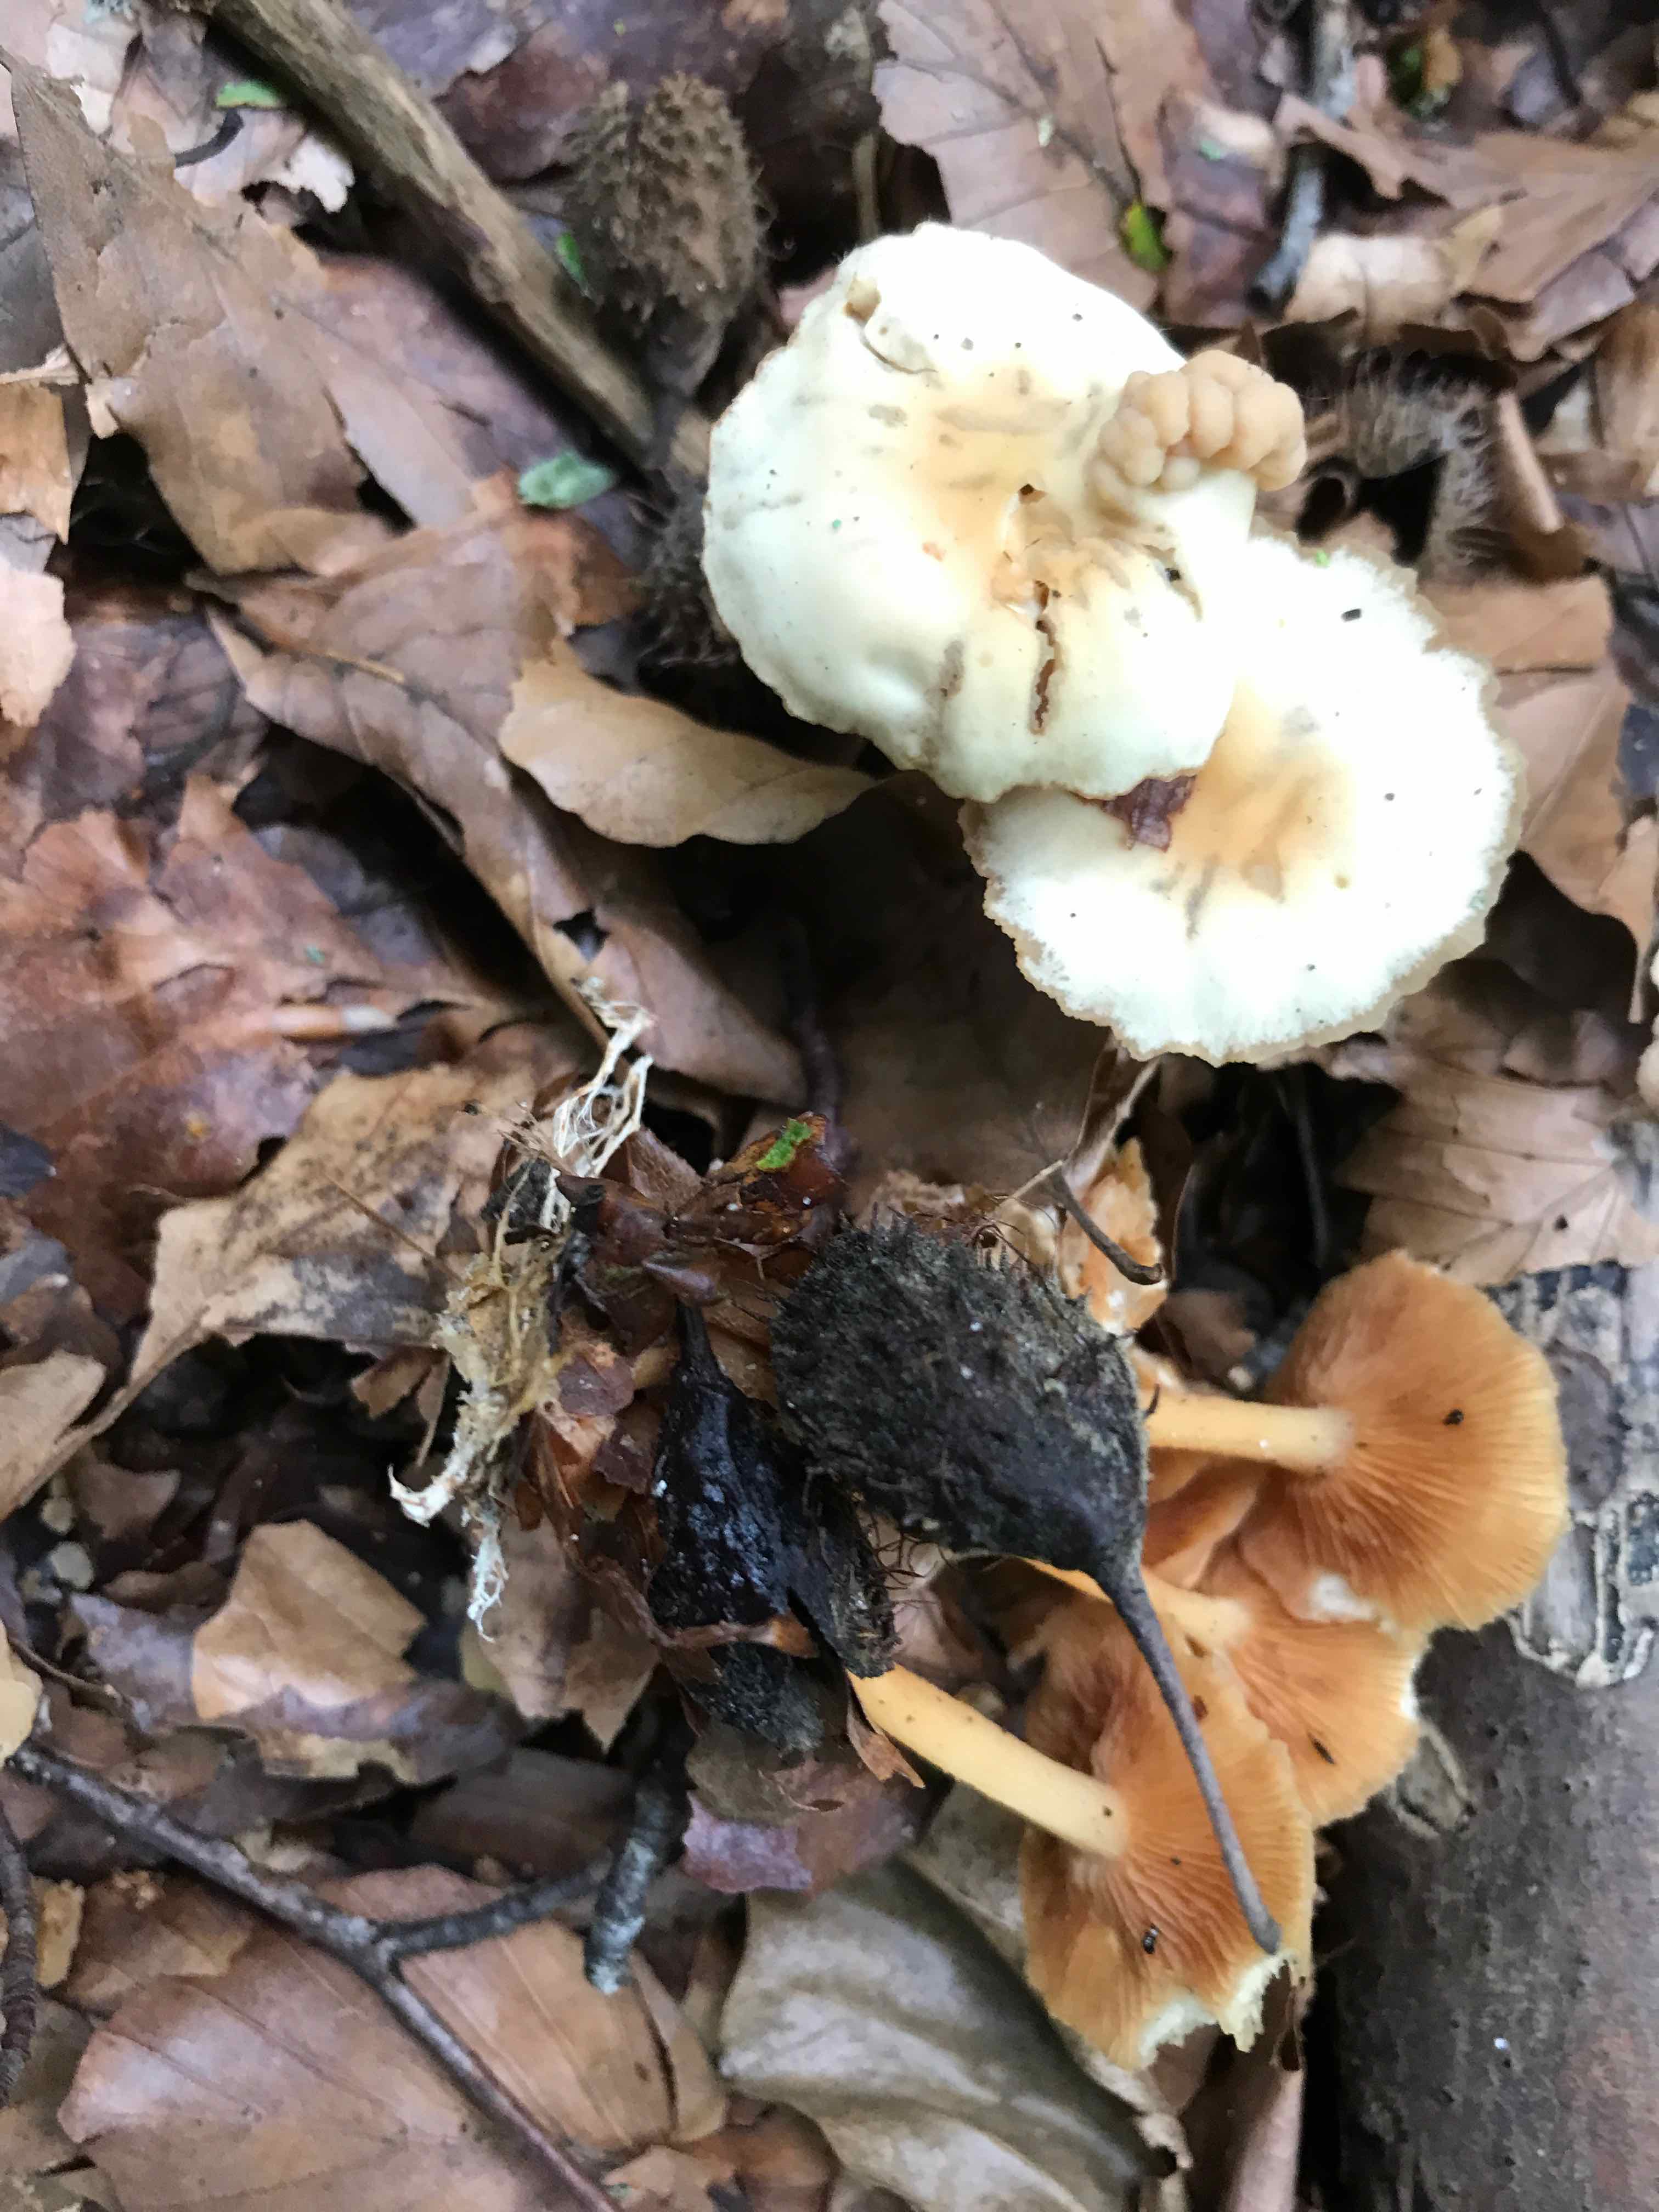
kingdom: Fungi
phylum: Basidiomycota
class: Agaricomycetes
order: Agaricales
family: Omphalotaceae
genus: Gymnopus
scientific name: Gymnopus dryophilus
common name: løv-fladhat
